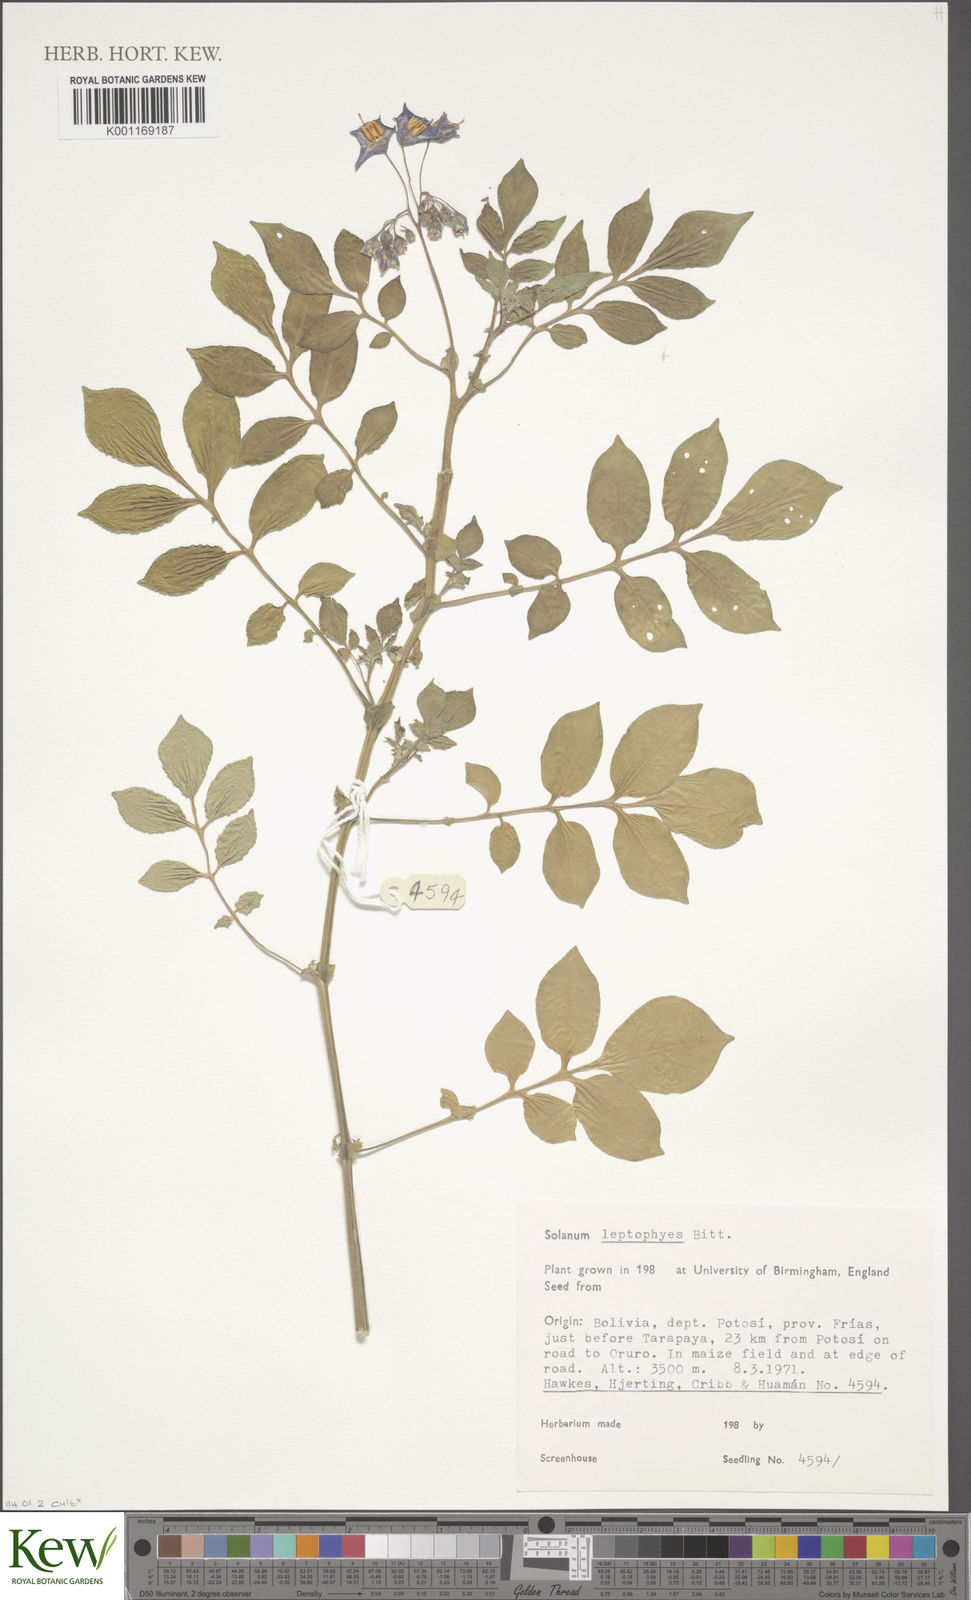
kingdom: Plantae
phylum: Tracheophyta
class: Magnoliopsida
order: Solanales
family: Solanaceae
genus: Solanum
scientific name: Solanum brevicaule
